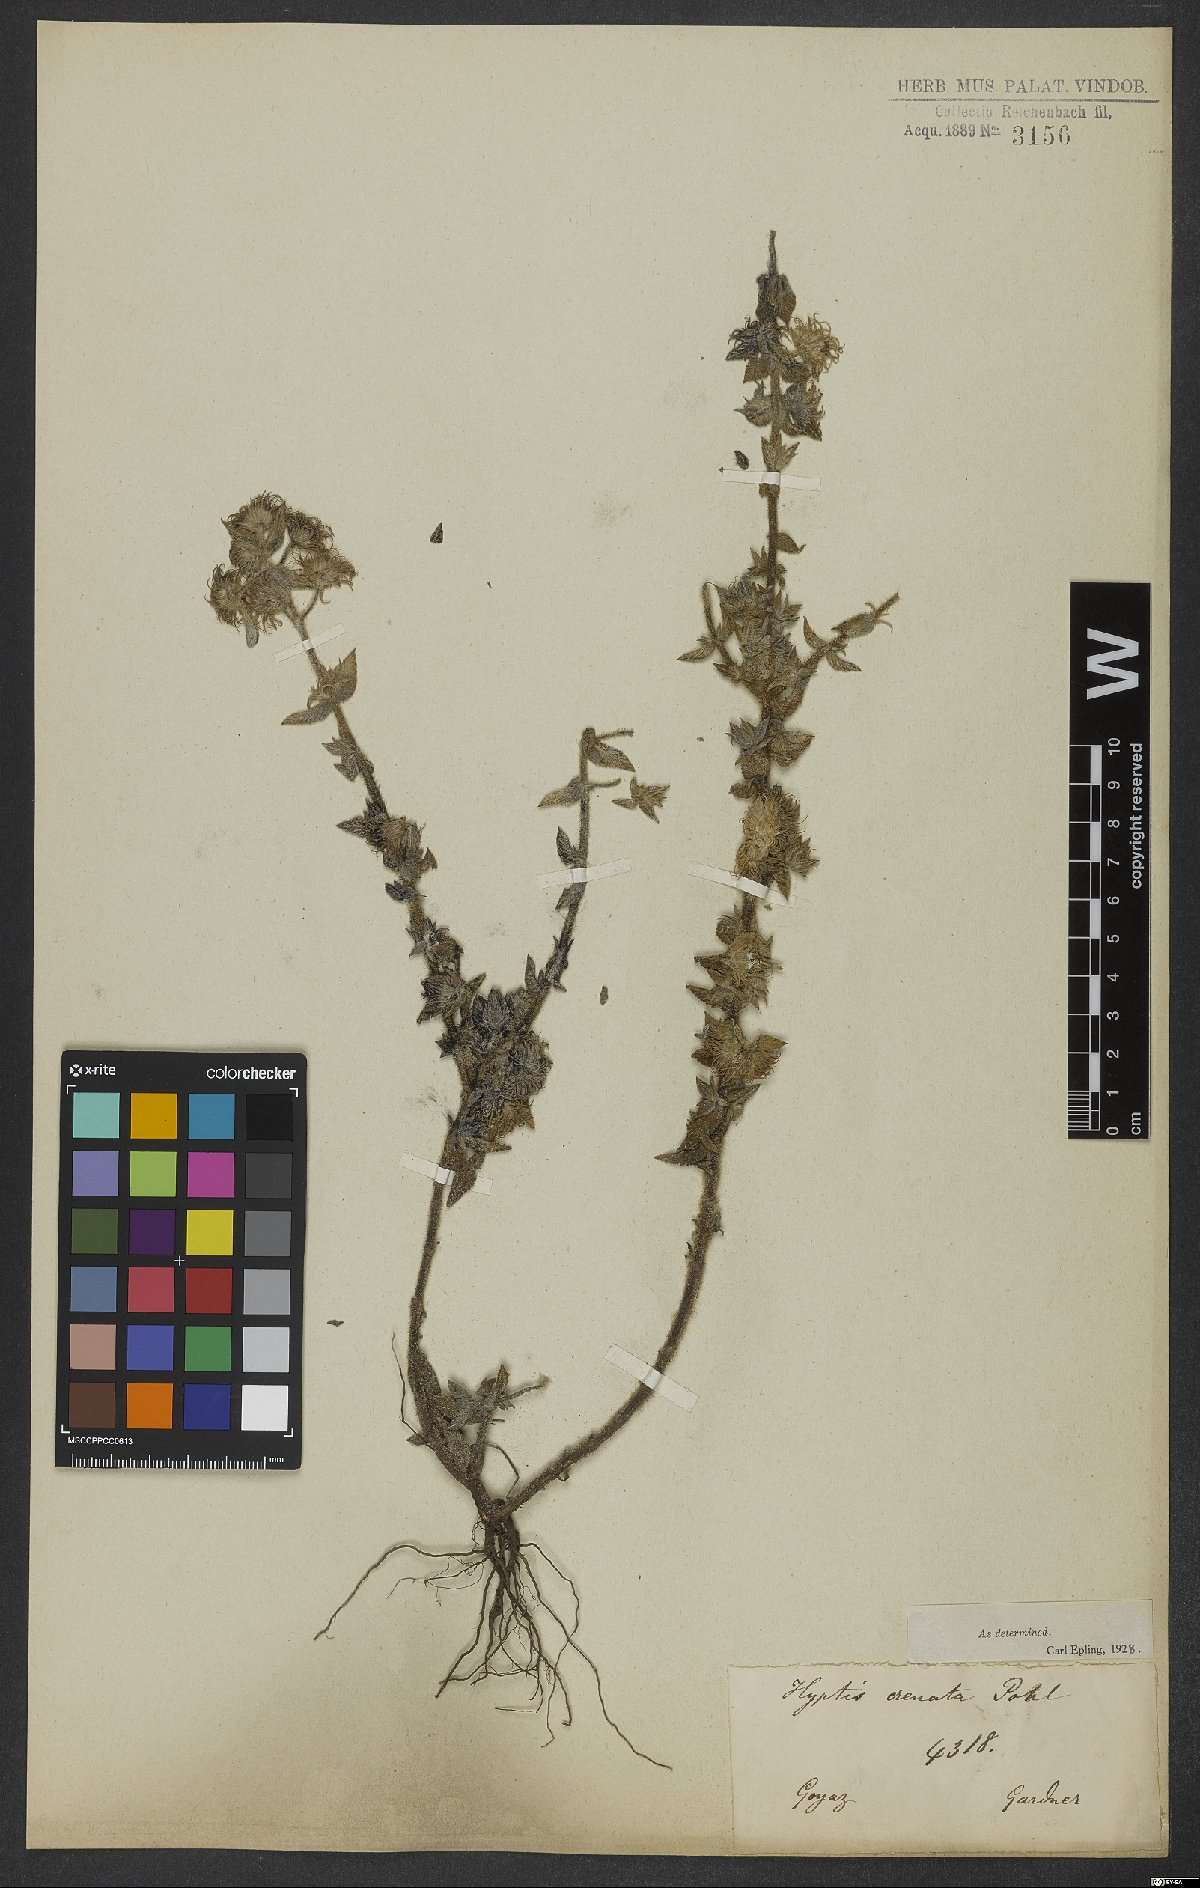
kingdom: Plantae
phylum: Tracheophyta
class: Magnoliopsida
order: Lamiales
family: Lamiaceae
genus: Hyptis
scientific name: Hyptis crenata
